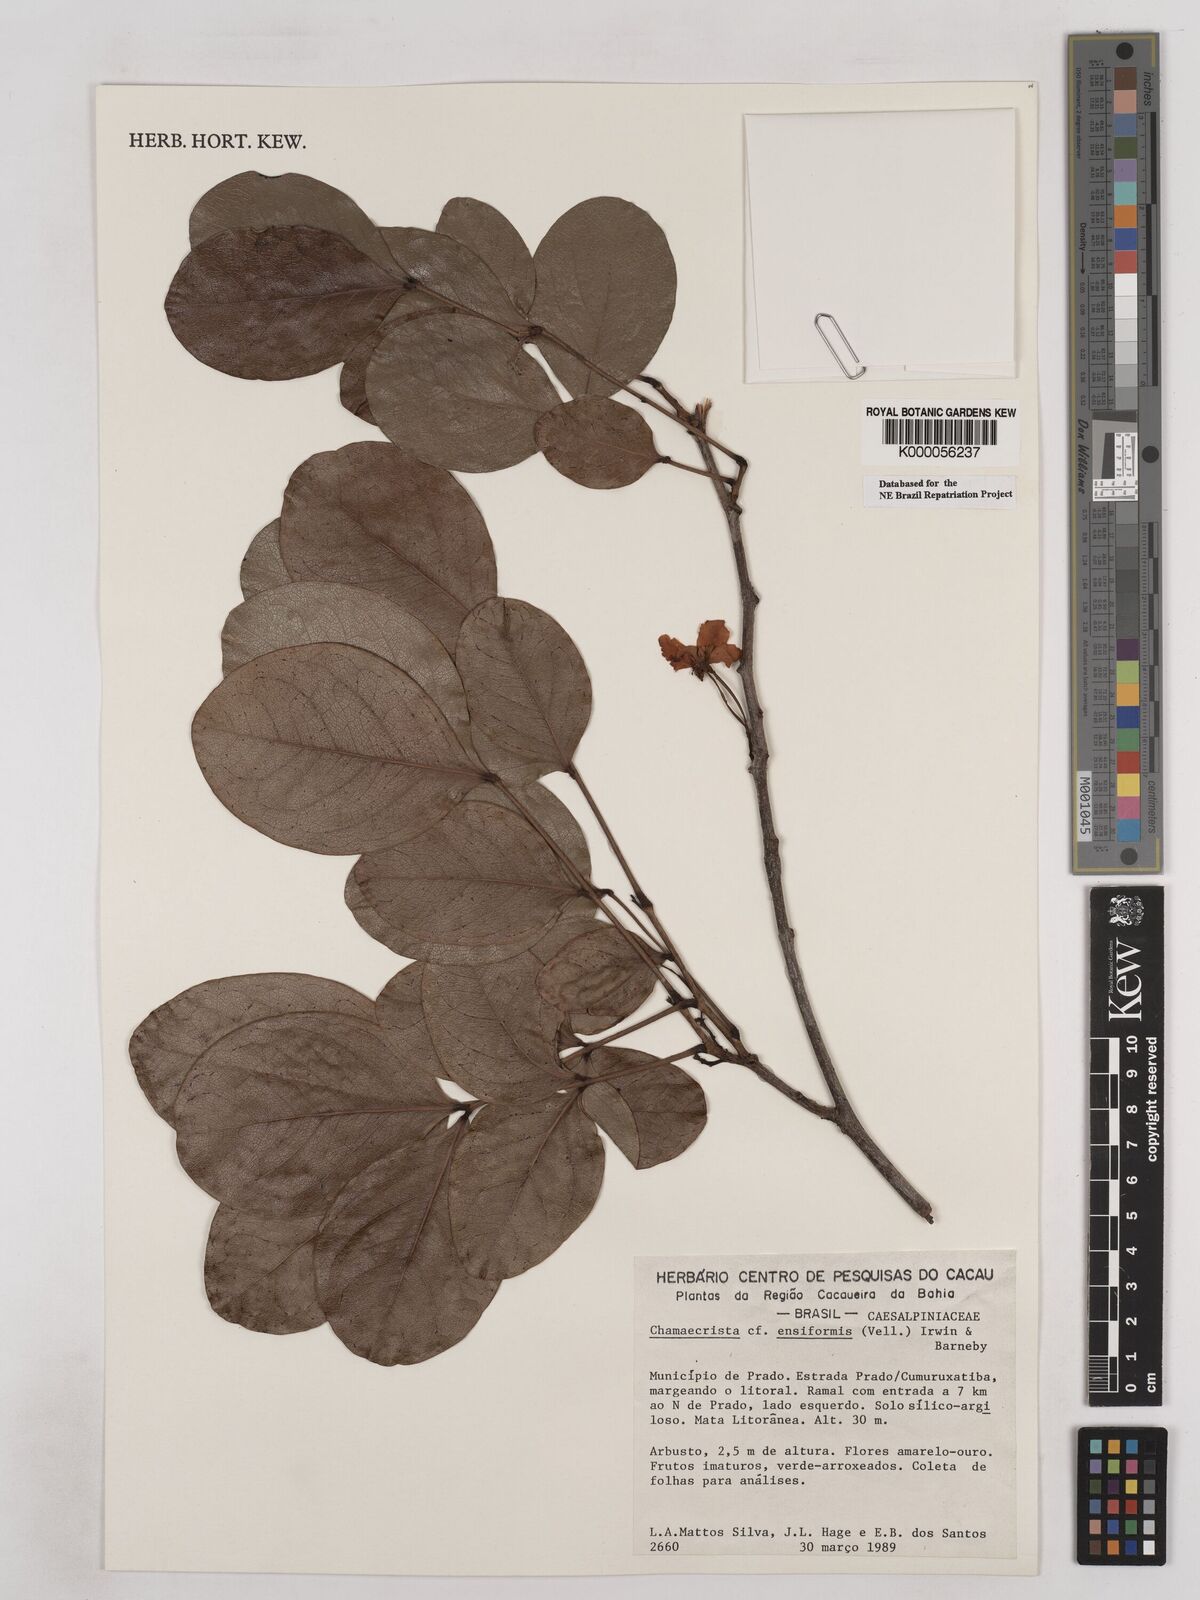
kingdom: Plantae
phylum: Tracheophyta
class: Magnoliopsida
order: Fabales
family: Fabaceae
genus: Chamaecrista
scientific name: Chamaecrista ensiformis
